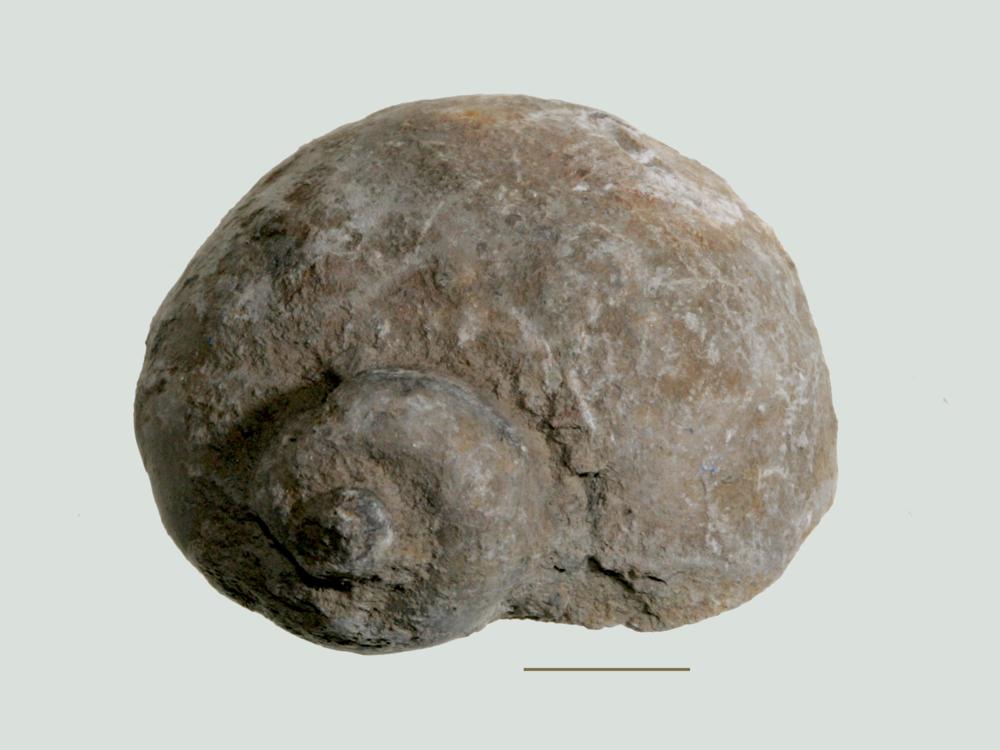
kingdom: Animalia
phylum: Mollusca
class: Gastropoda
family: Holopeidae
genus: Holopea
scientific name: Holopea ampullacea
